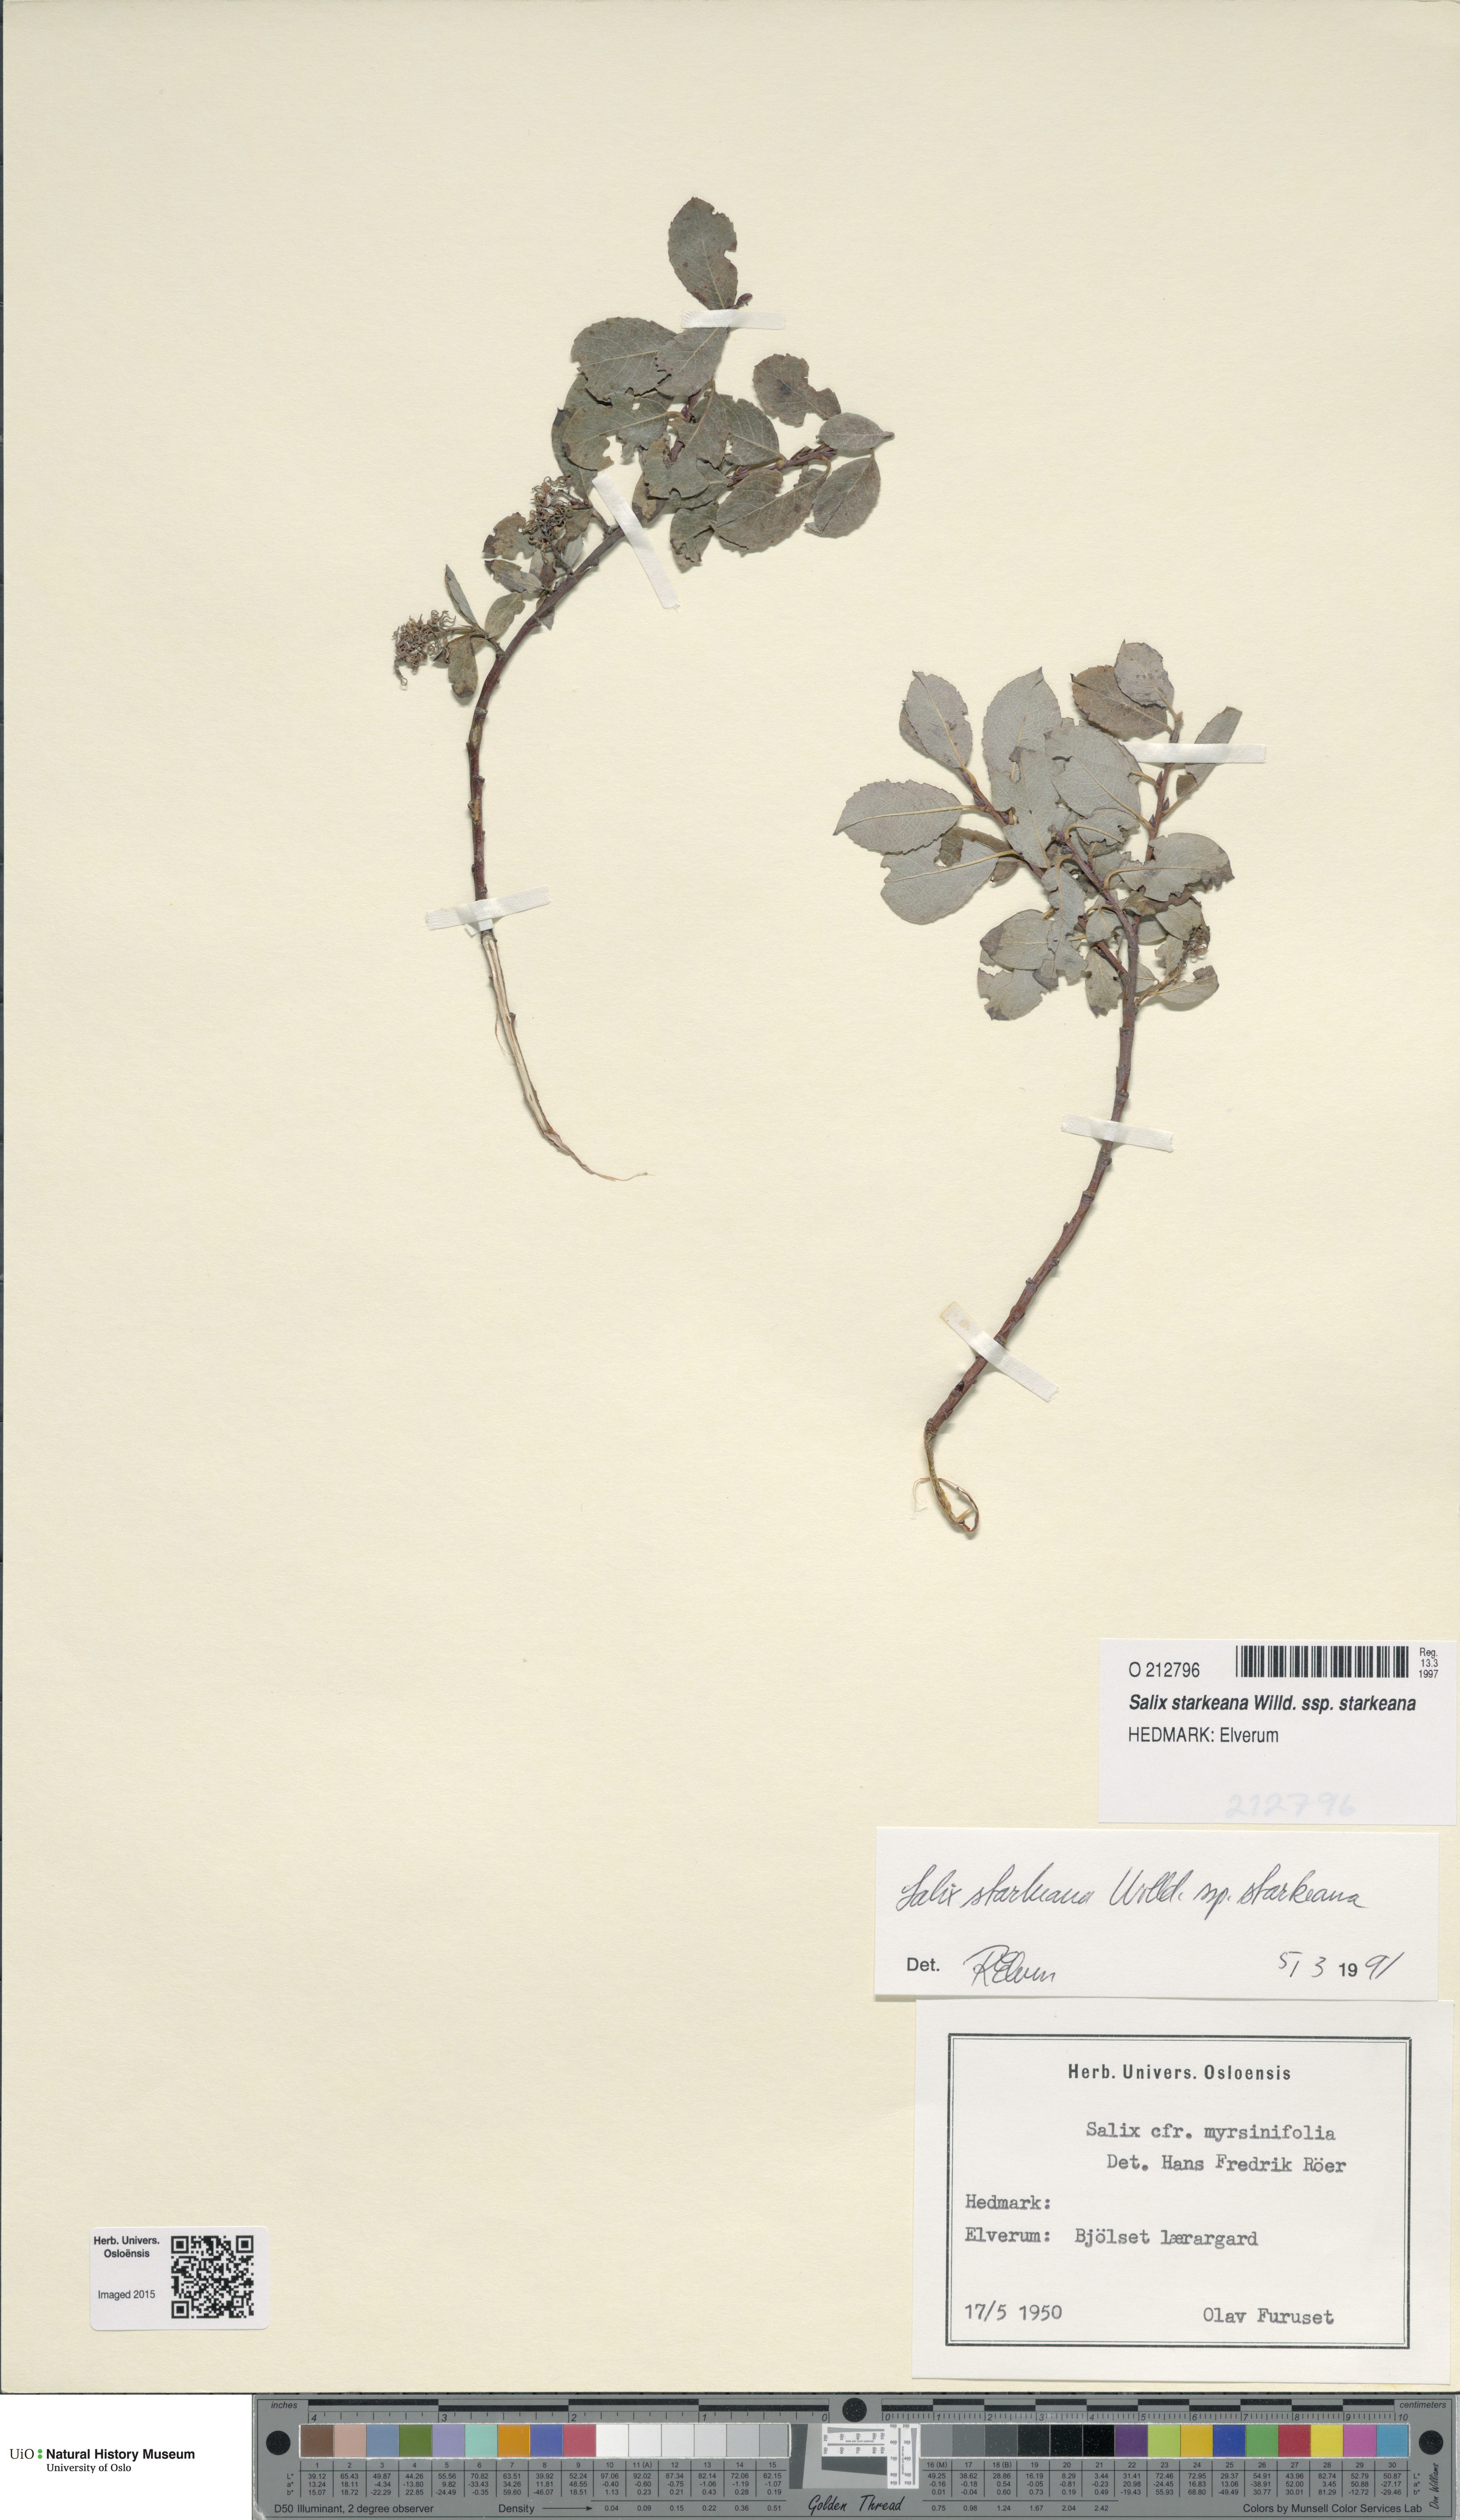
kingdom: Plantae
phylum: Tracheophyta
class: Magnoliopsida
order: Malpighiales
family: Salicaceae
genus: Salix
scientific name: Salix starkeana
